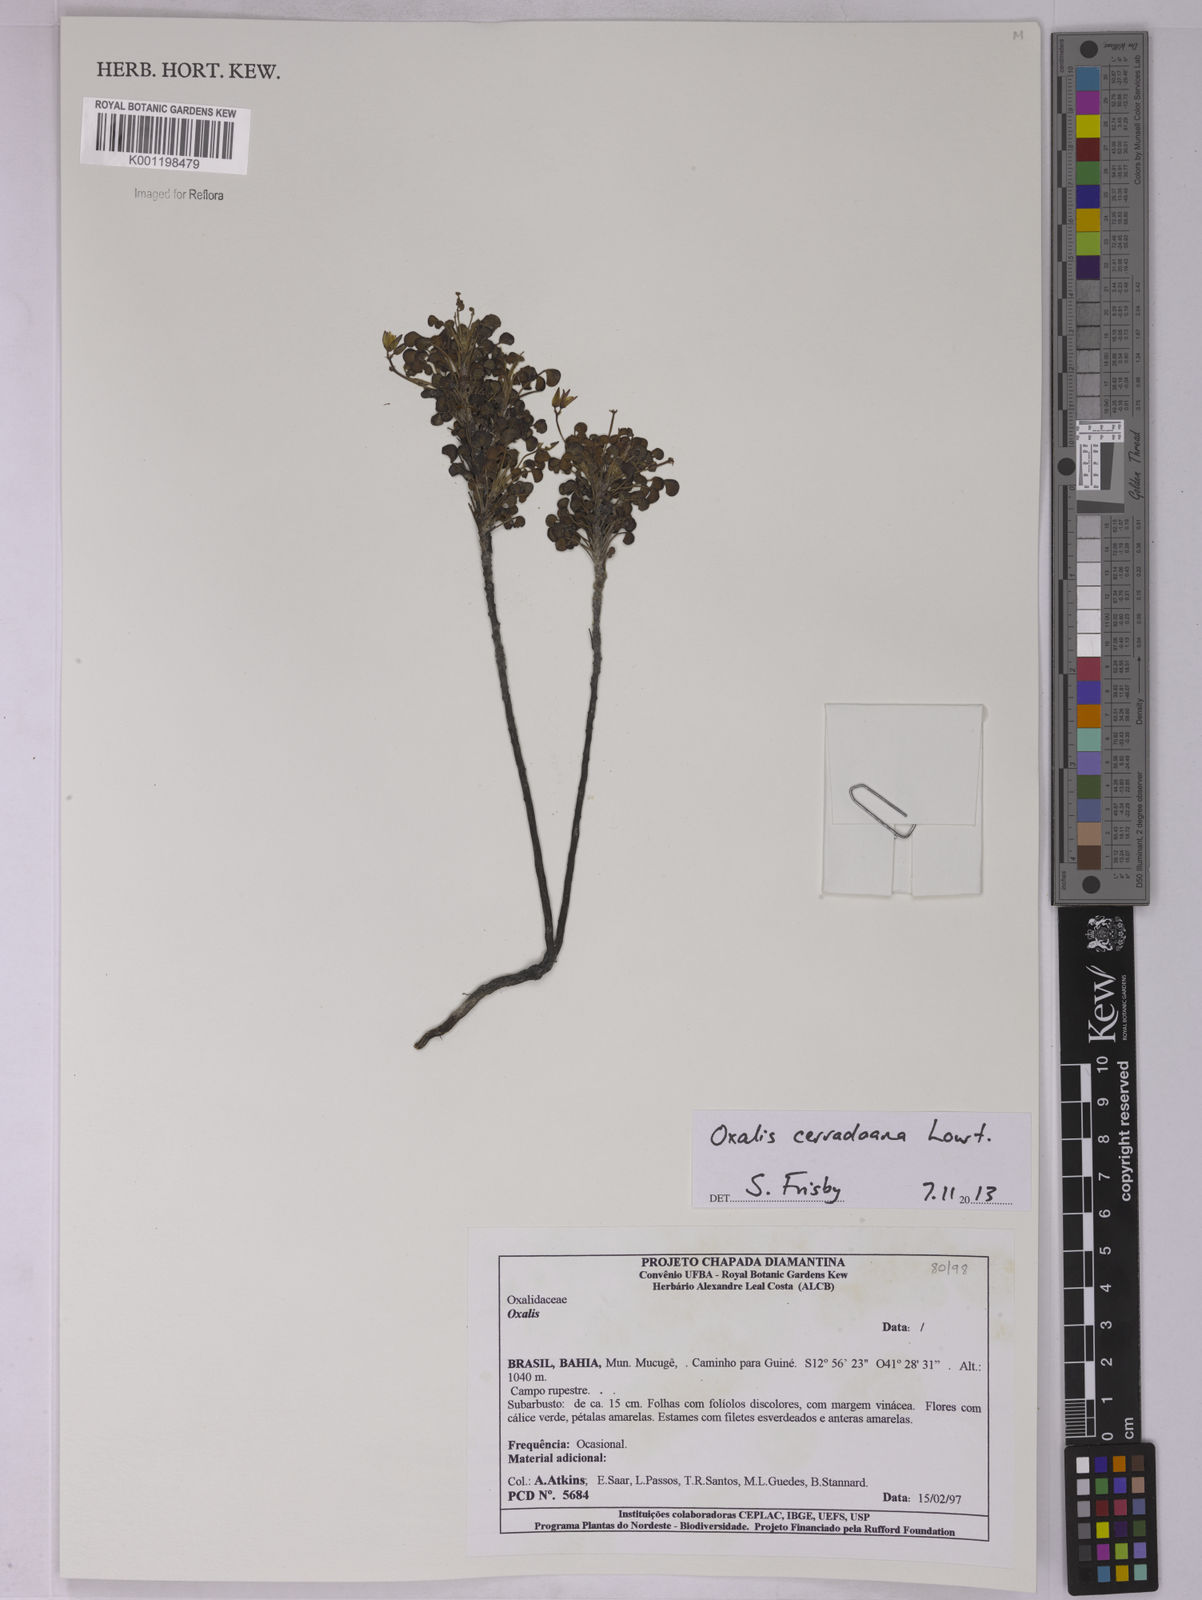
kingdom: Plantae
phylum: Tracheophyta
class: Magnoliopsida
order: Oxalidales
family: Oxalidaceae
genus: Oxalis
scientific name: Oxalis cerradoana
